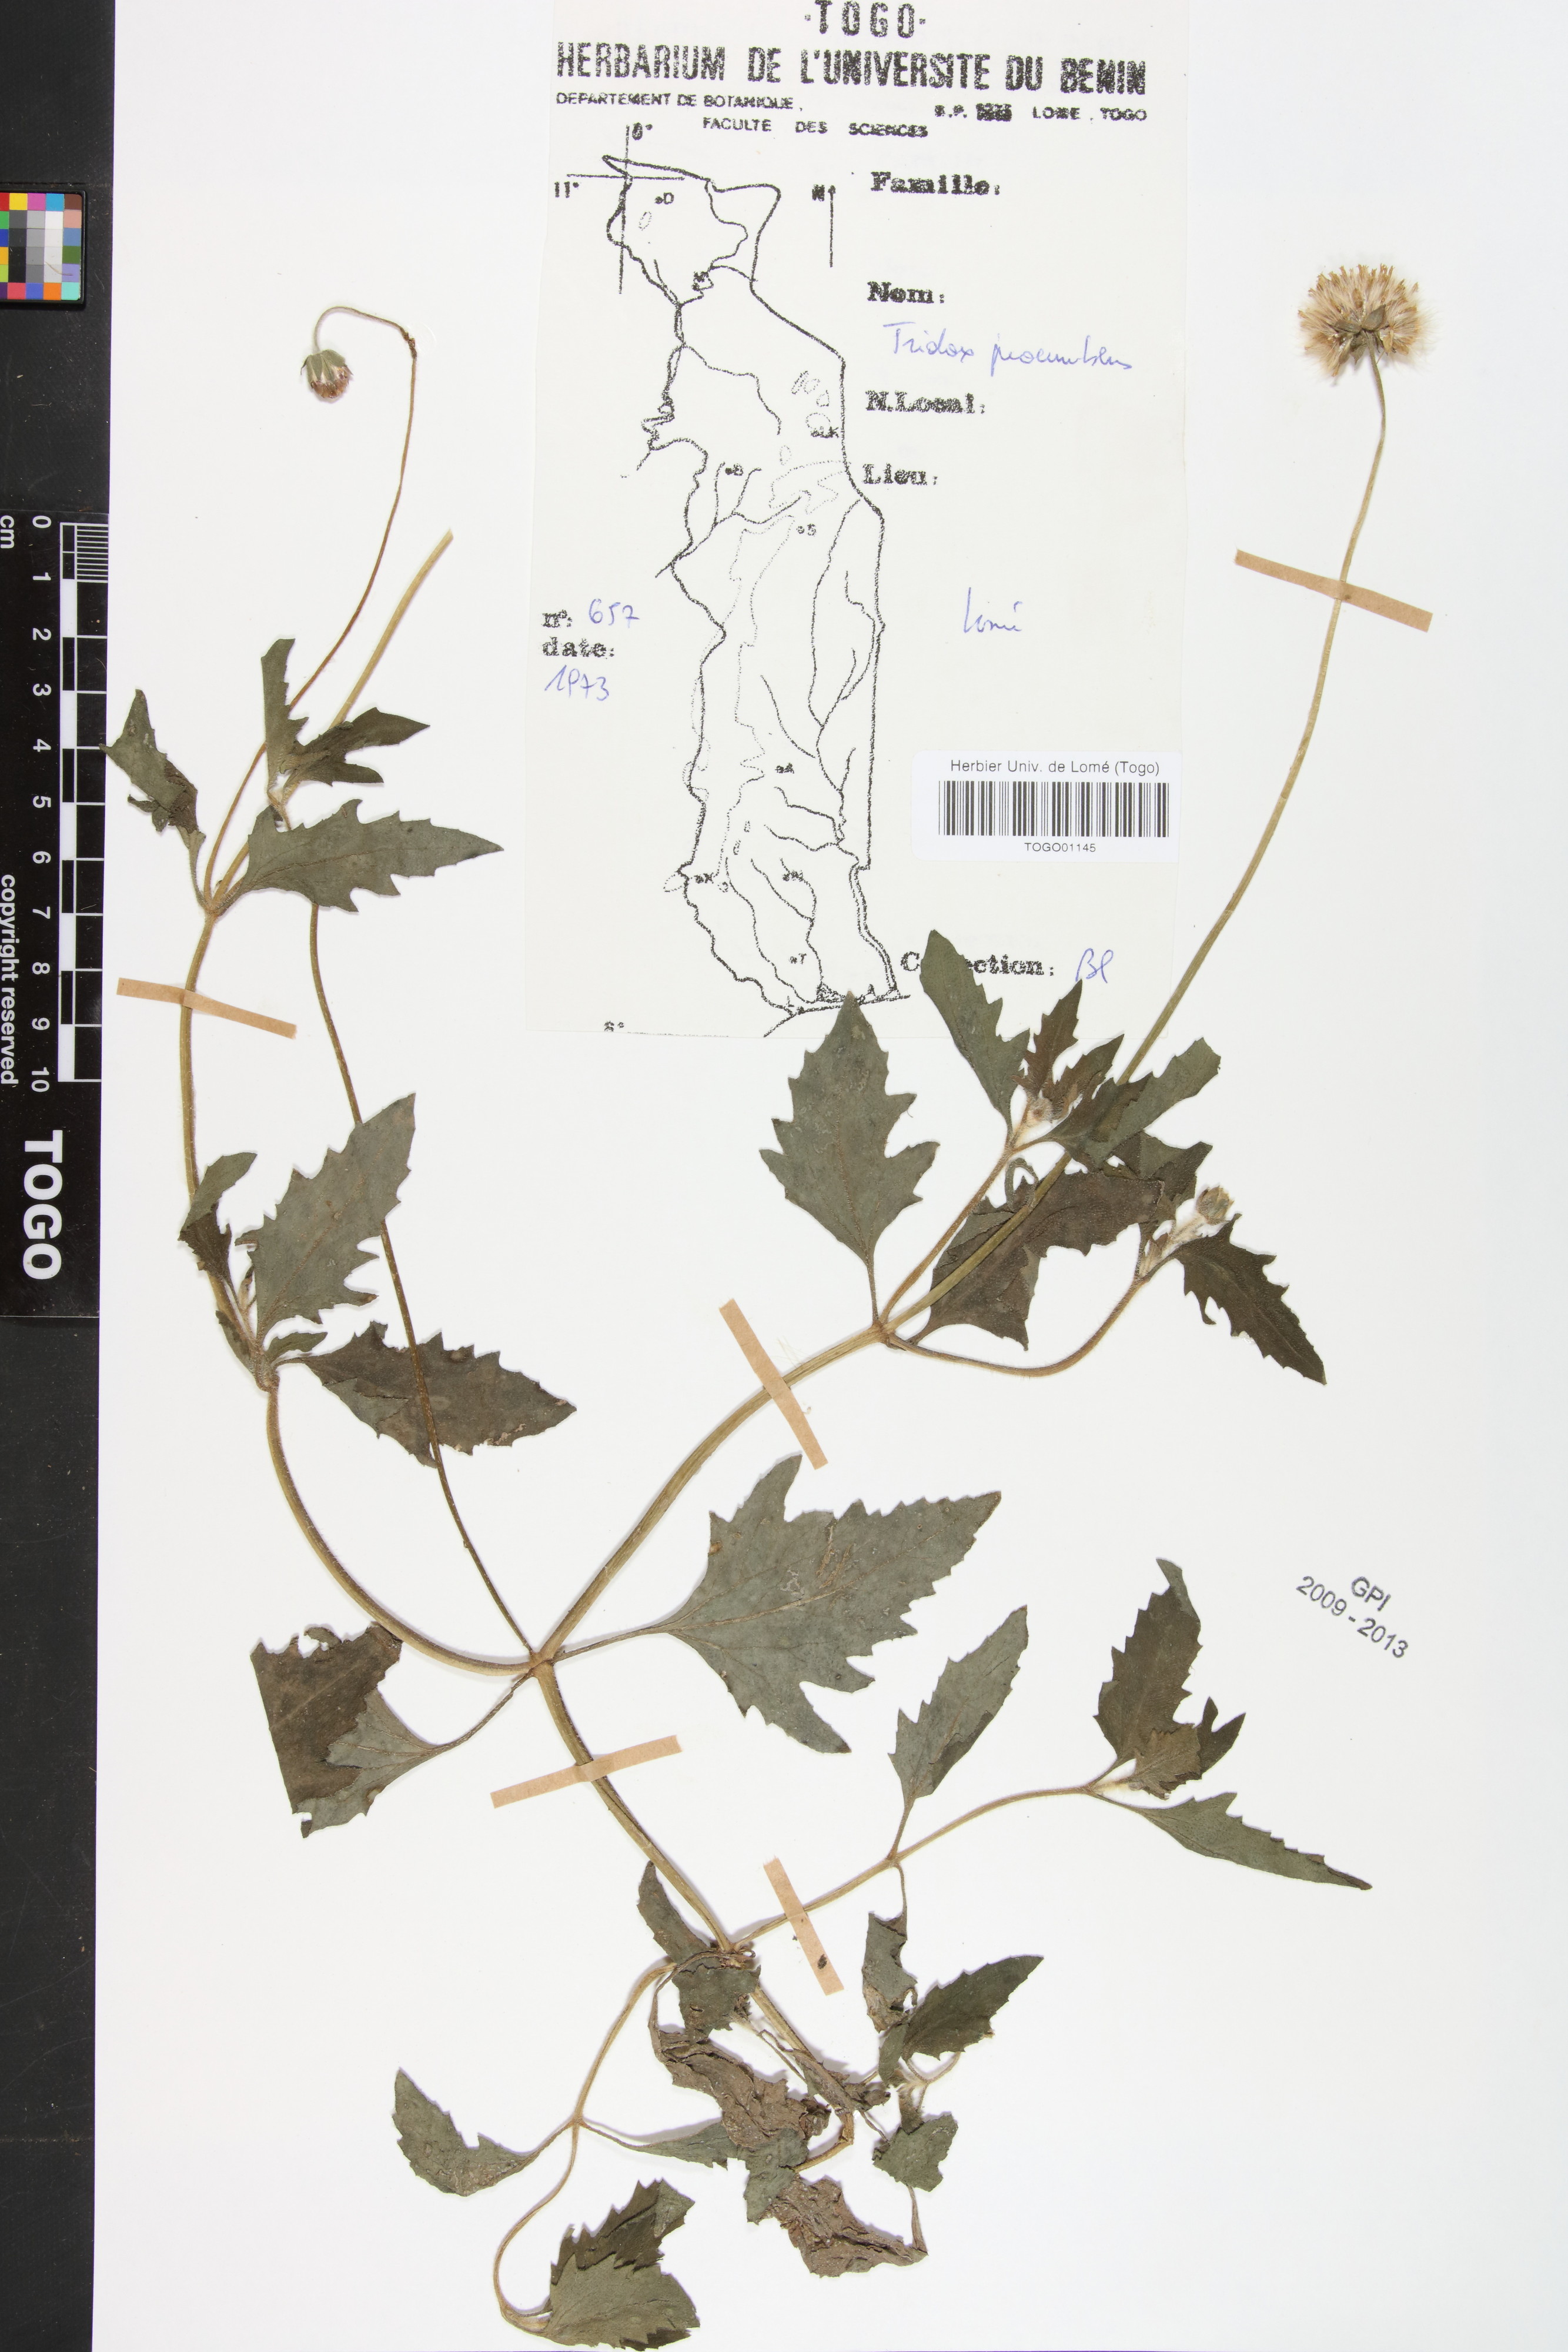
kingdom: Plantae
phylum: Tracheophyta
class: Magnoliopsida
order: Asterales
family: Asteraceae
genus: Tridax
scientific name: Tridax procumbens
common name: Coatbuttons
